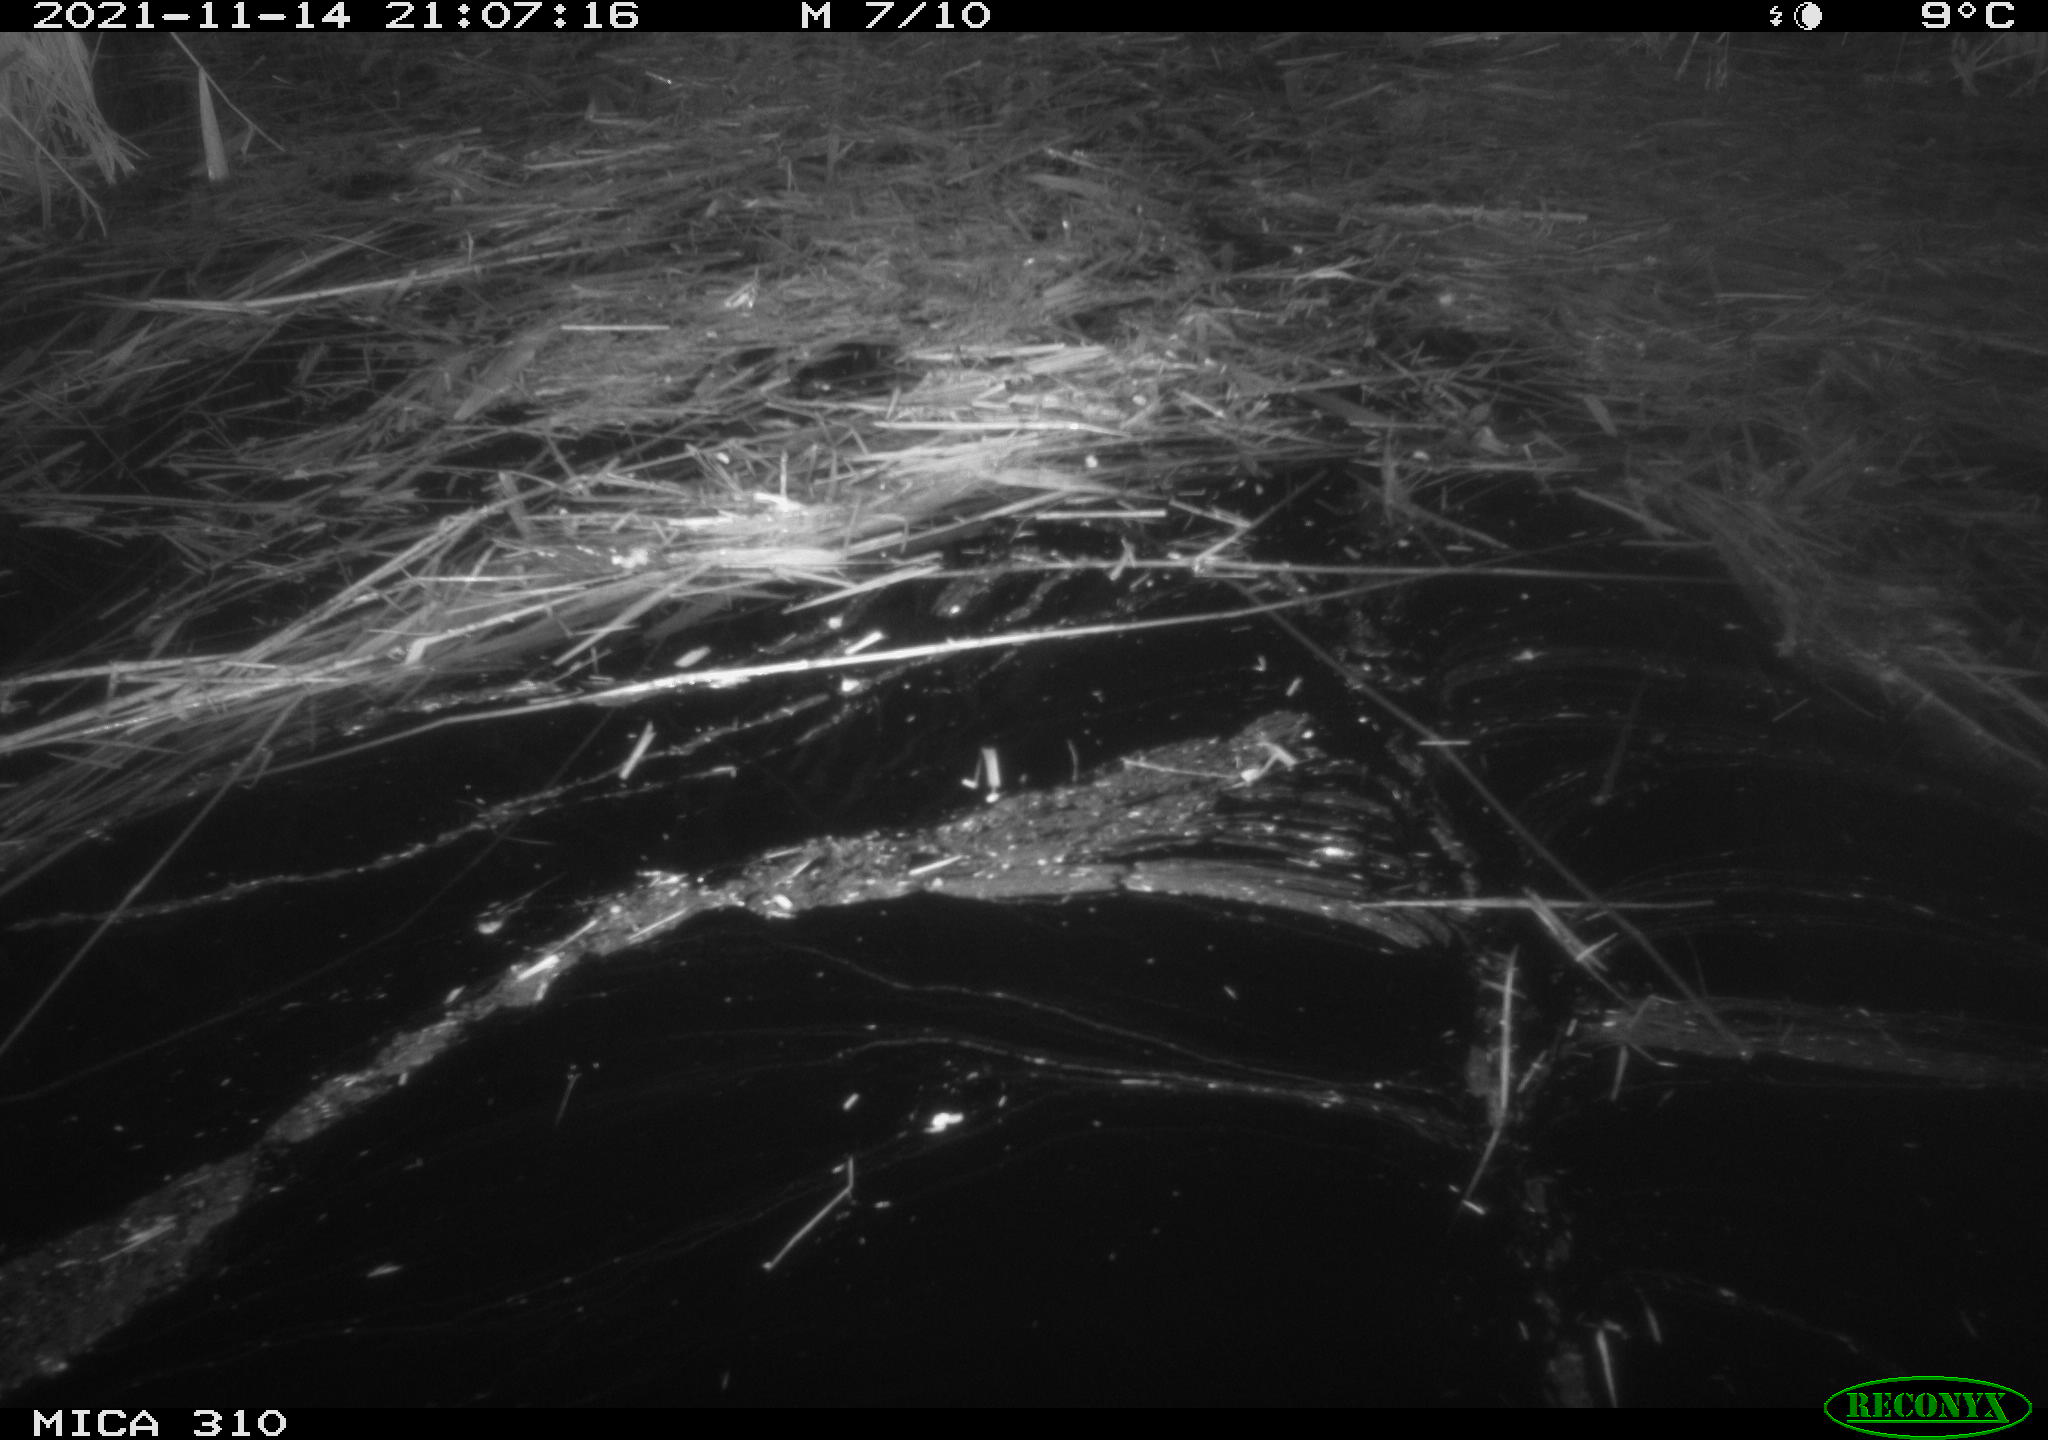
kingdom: Animalia
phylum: Chordata
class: Mammalia
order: Rodentia
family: Muridae
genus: Rattus
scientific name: Rattus norvegicus
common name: Brown rat
